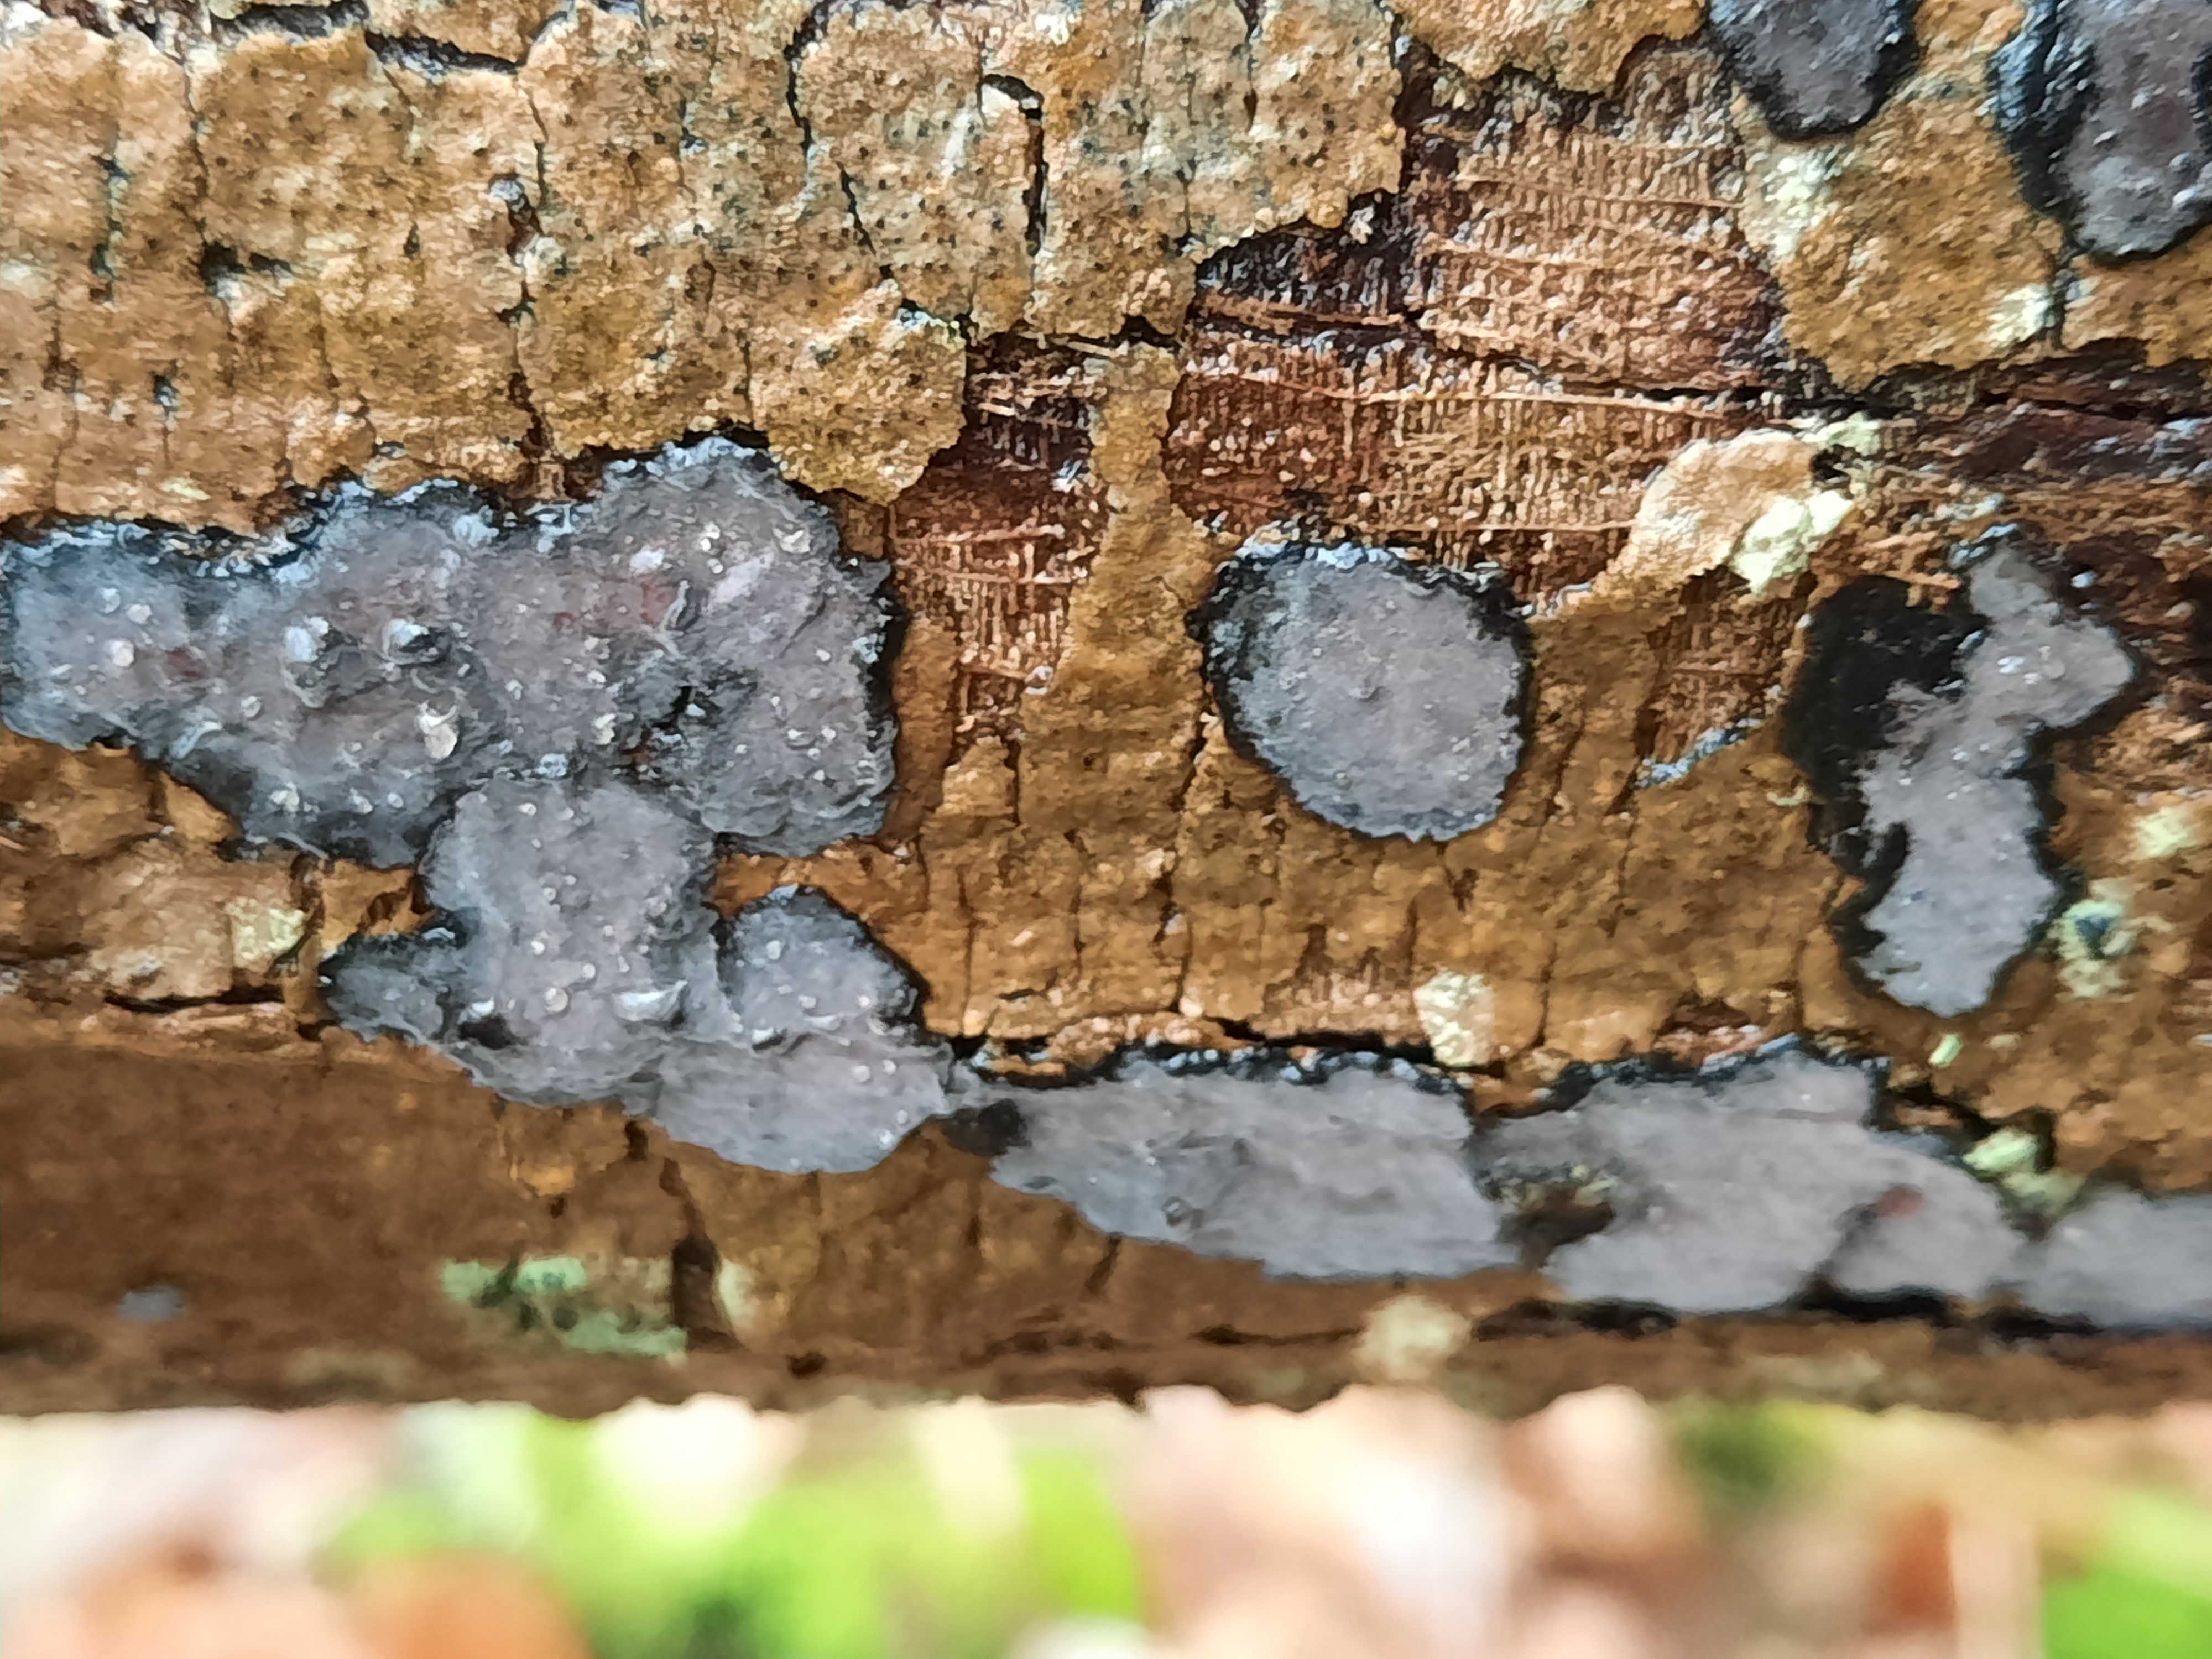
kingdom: Fungi
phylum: Basidiomycota
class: Agaricomycetes
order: Russulales
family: Peniophoraceae
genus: Peniophora
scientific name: Peniophora limitata
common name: mørkrandet voksskind
